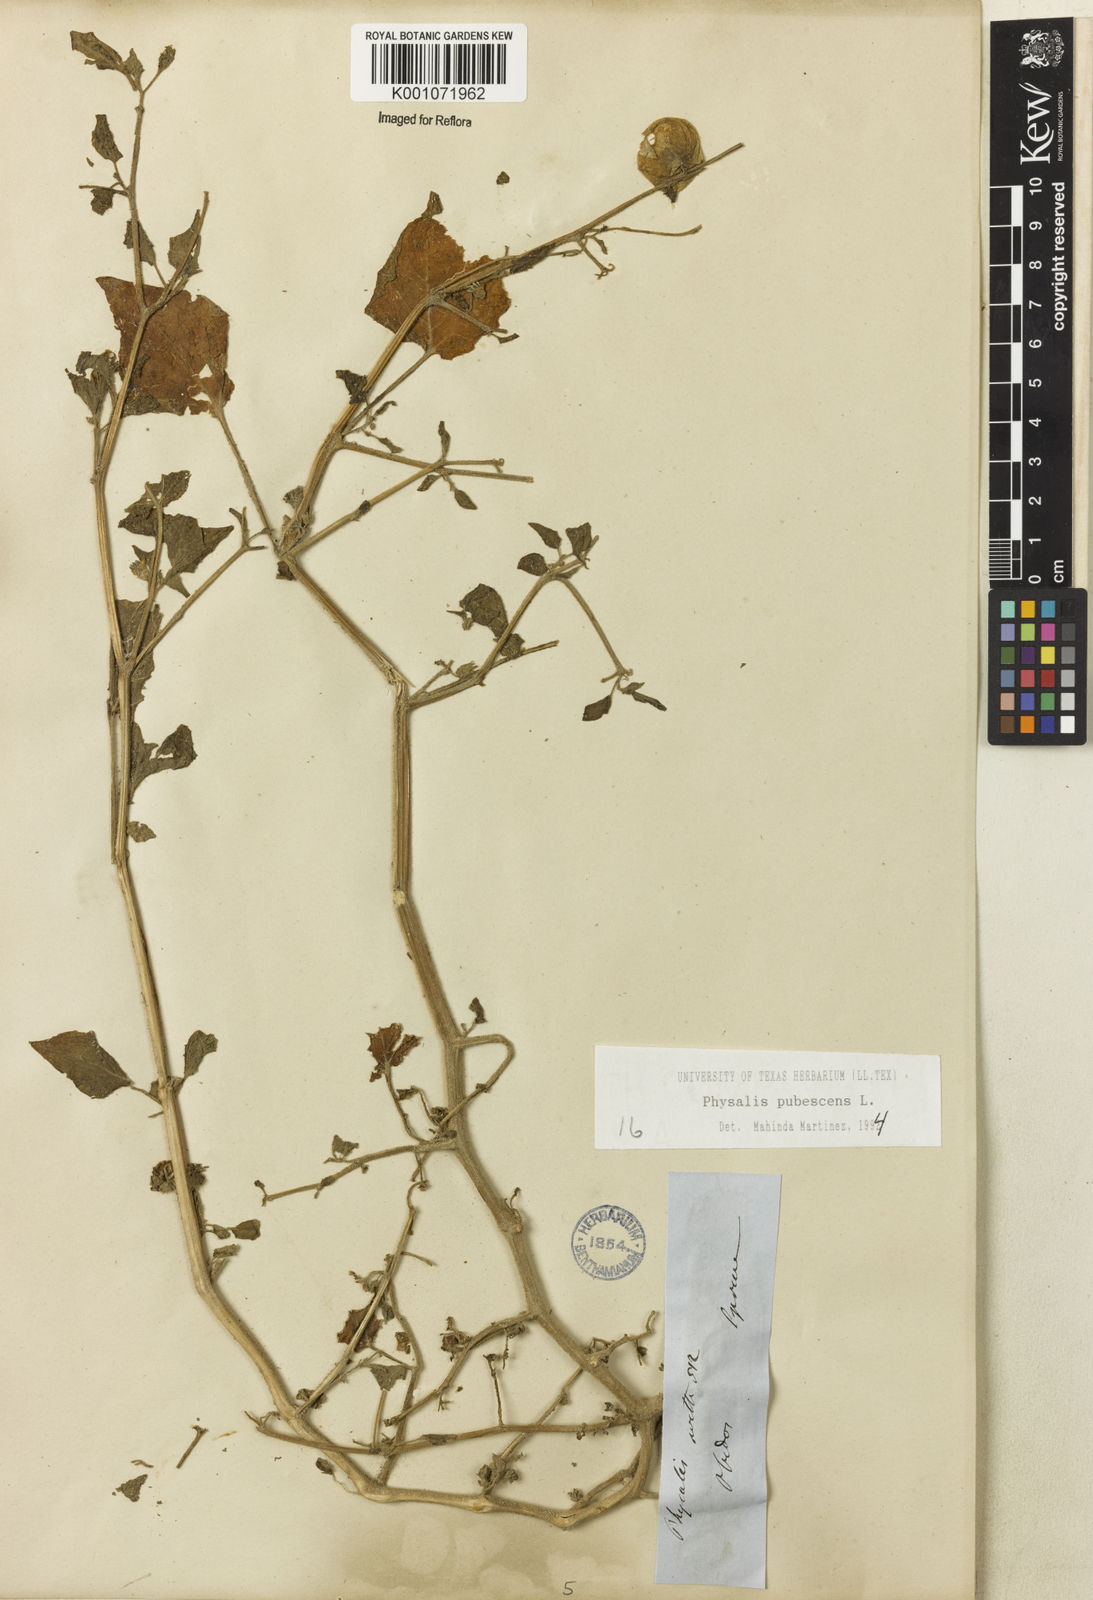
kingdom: Plantae
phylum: Tracheophyta
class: Magnoliopsida
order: Solanales
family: Solanaceae
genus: Physalis
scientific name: Physalis pubescens
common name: Downy ground-cherry
